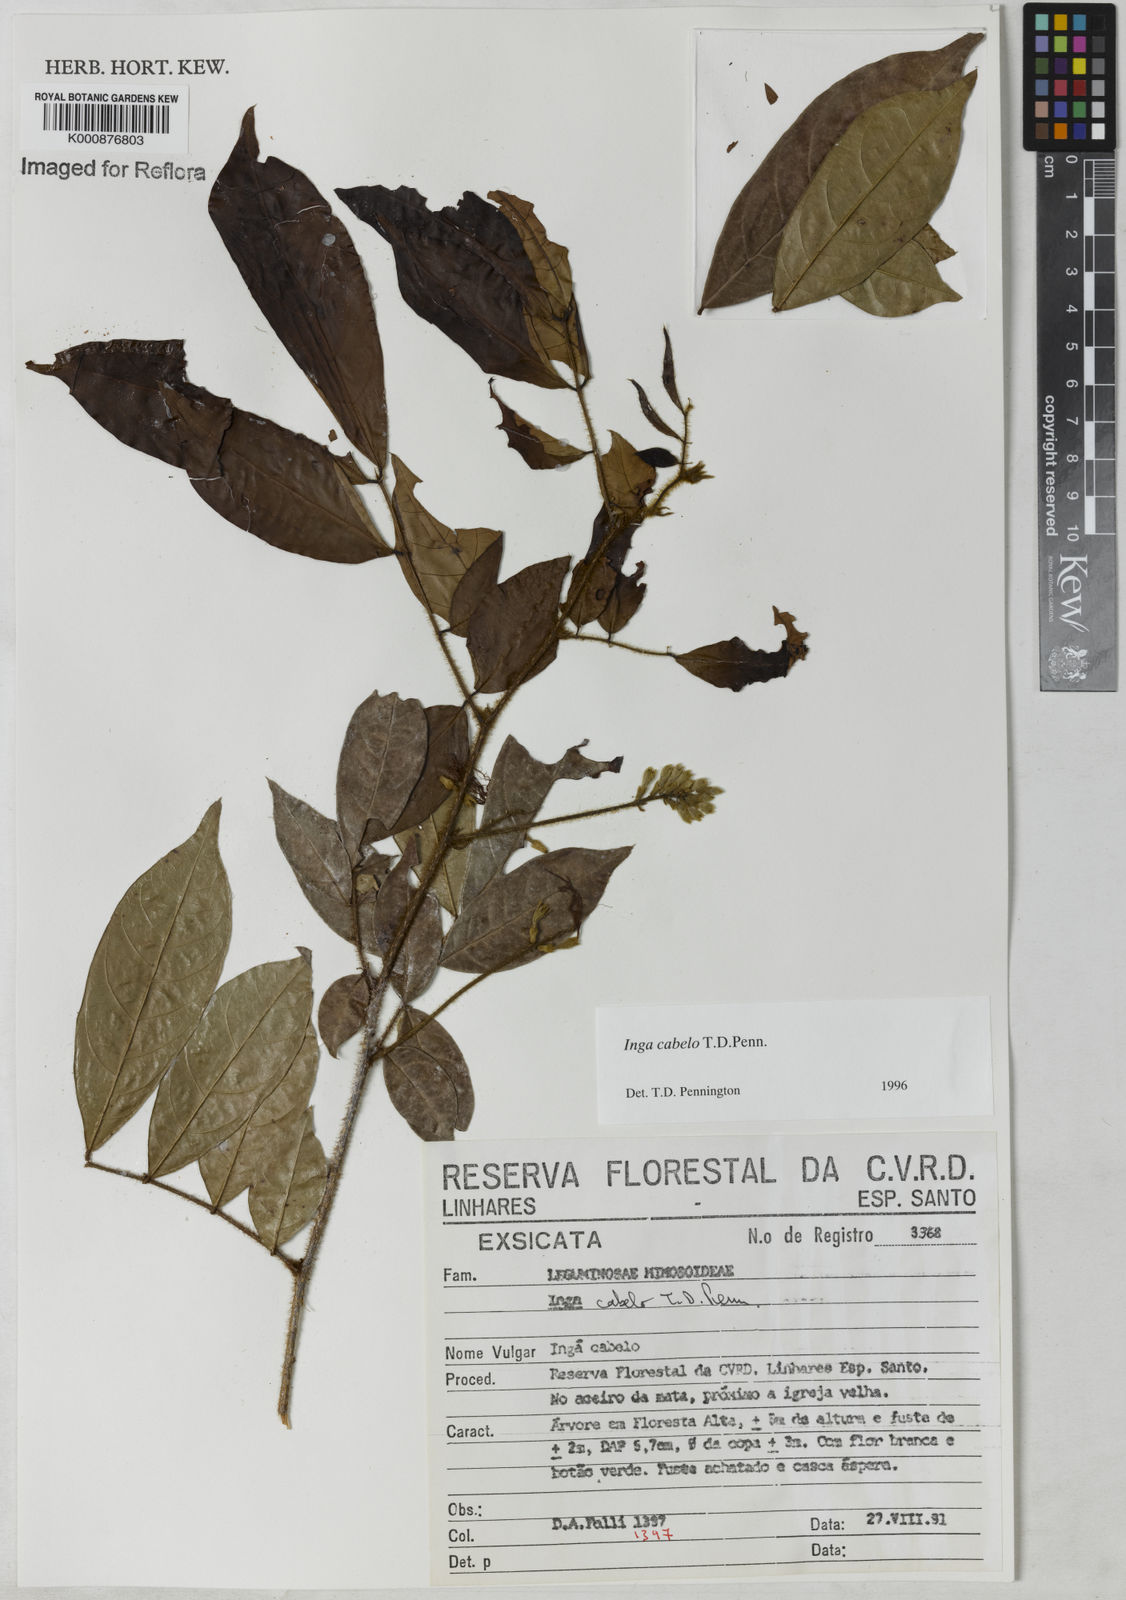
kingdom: Plantae
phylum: Tracheophyta
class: Magnoliopsida
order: Fabales
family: Fabaceae
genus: Inga
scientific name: Inga cabelo
